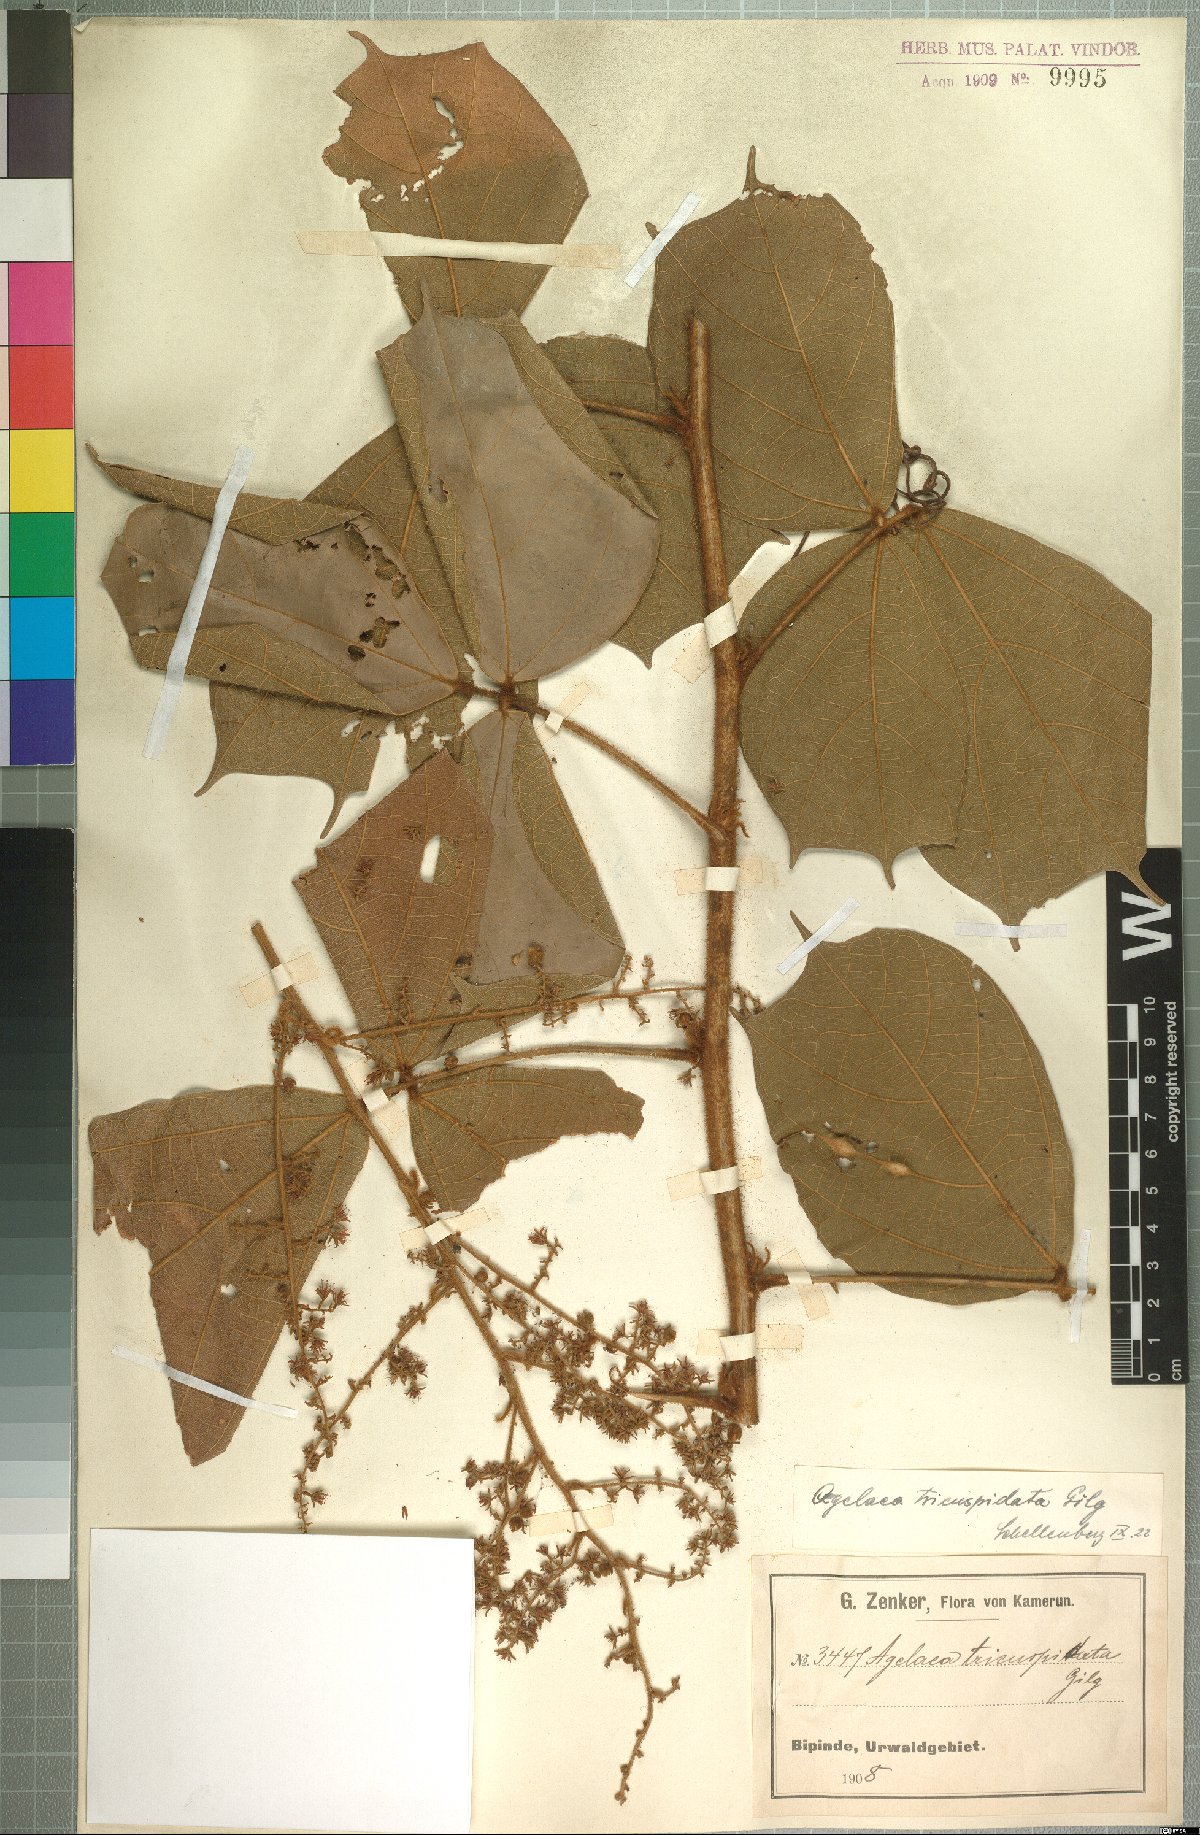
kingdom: Plantae
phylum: Tracheophyta
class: Magnoliopsida
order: Oxalidales
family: Connaraceae
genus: Agelaea
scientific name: Agelaea pentagyna
